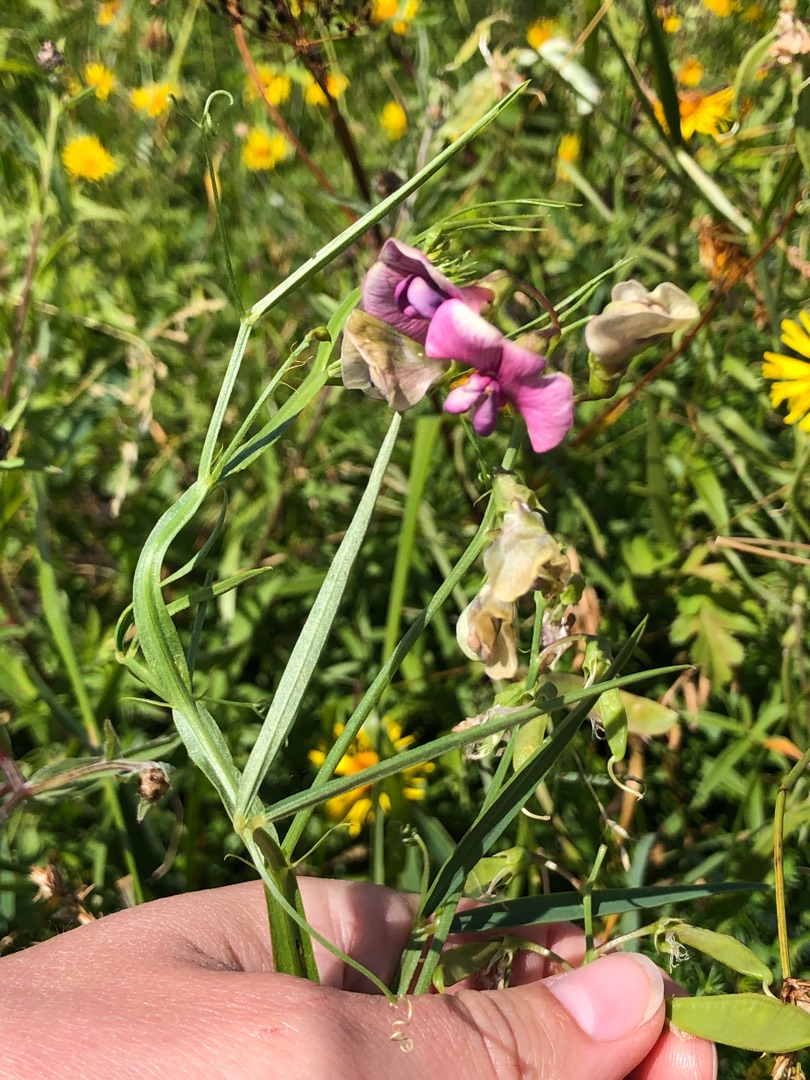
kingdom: Plantae
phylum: Tracheophyta
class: Magnoliopsida
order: Fabales
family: Fabaceae
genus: Lathyrus
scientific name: Lathyrus sylvestris
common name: Skov-fladbælg
